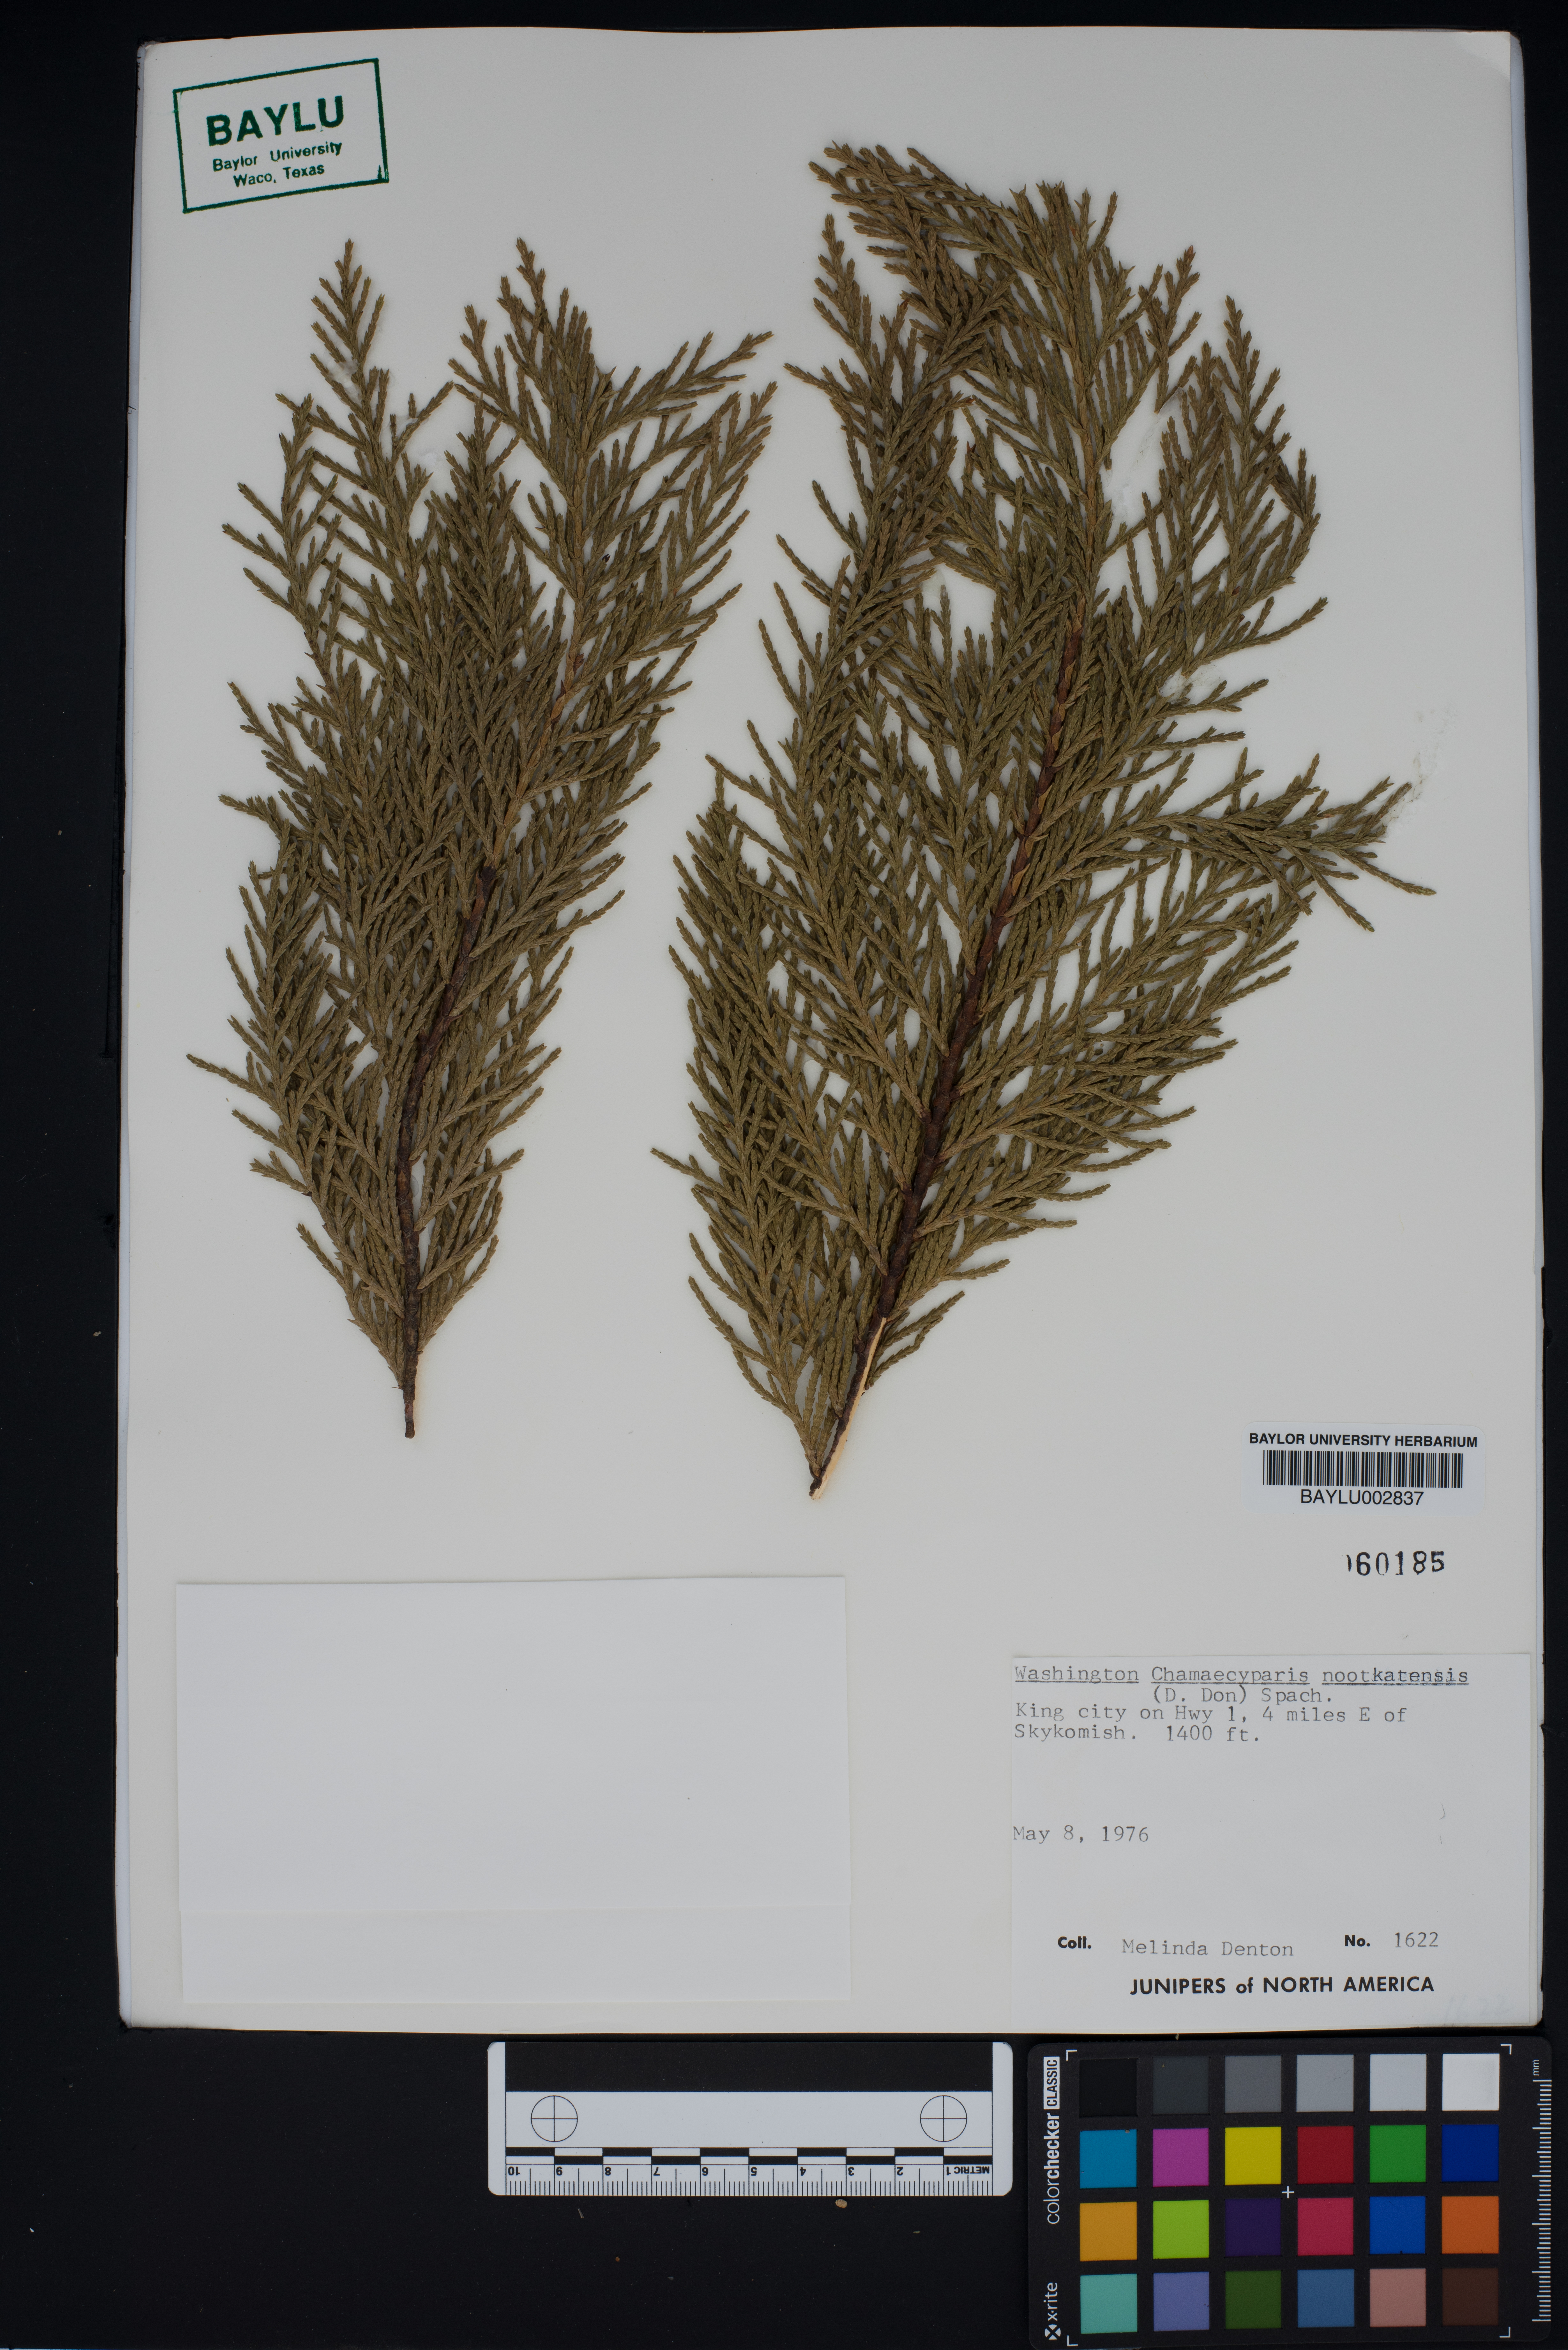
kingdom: Plantae
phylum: Tracheophyta
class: Pinopsida
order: Pinales
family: Cupressaceae
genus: Xanthocyparis
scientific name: Xanthocyparis nootkatensis
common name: Nootka cypress
